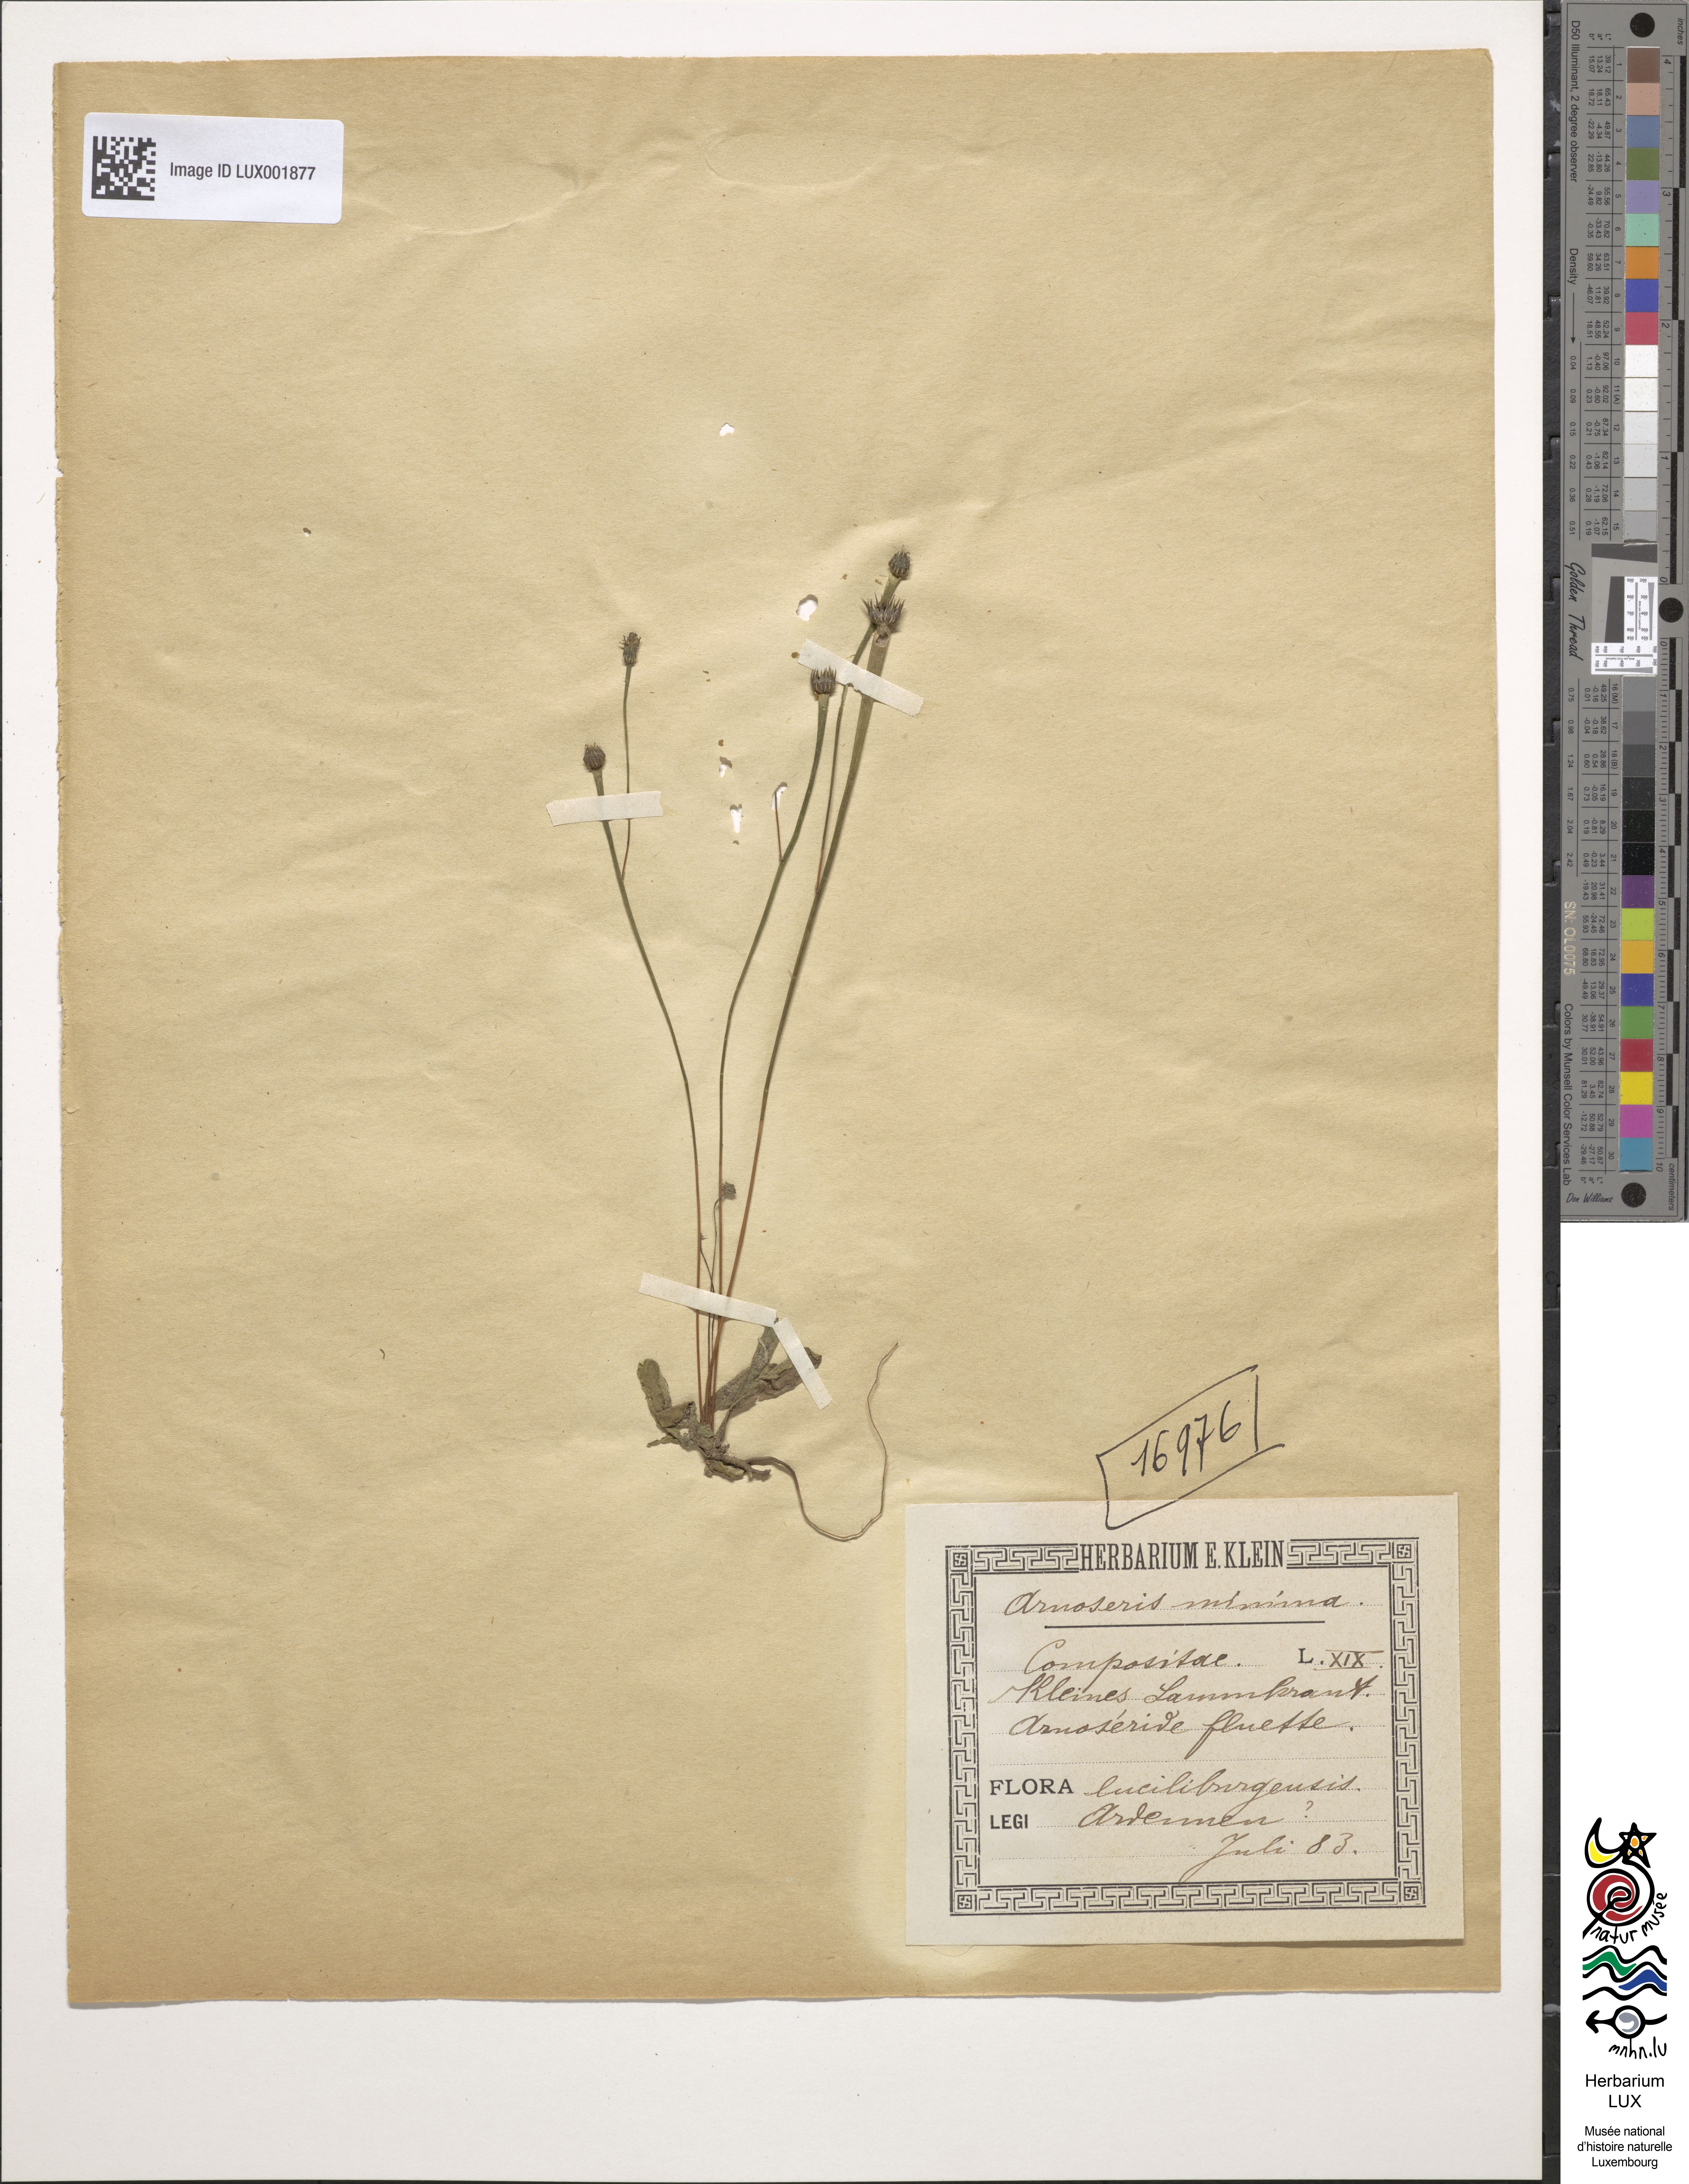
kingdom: Plantae
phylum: Tracheophyta
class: Magnoliopsida
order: Asterales
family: Asteraceae
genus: Arnoseris
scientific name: Arnoseris minima
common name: Lamb's succory
